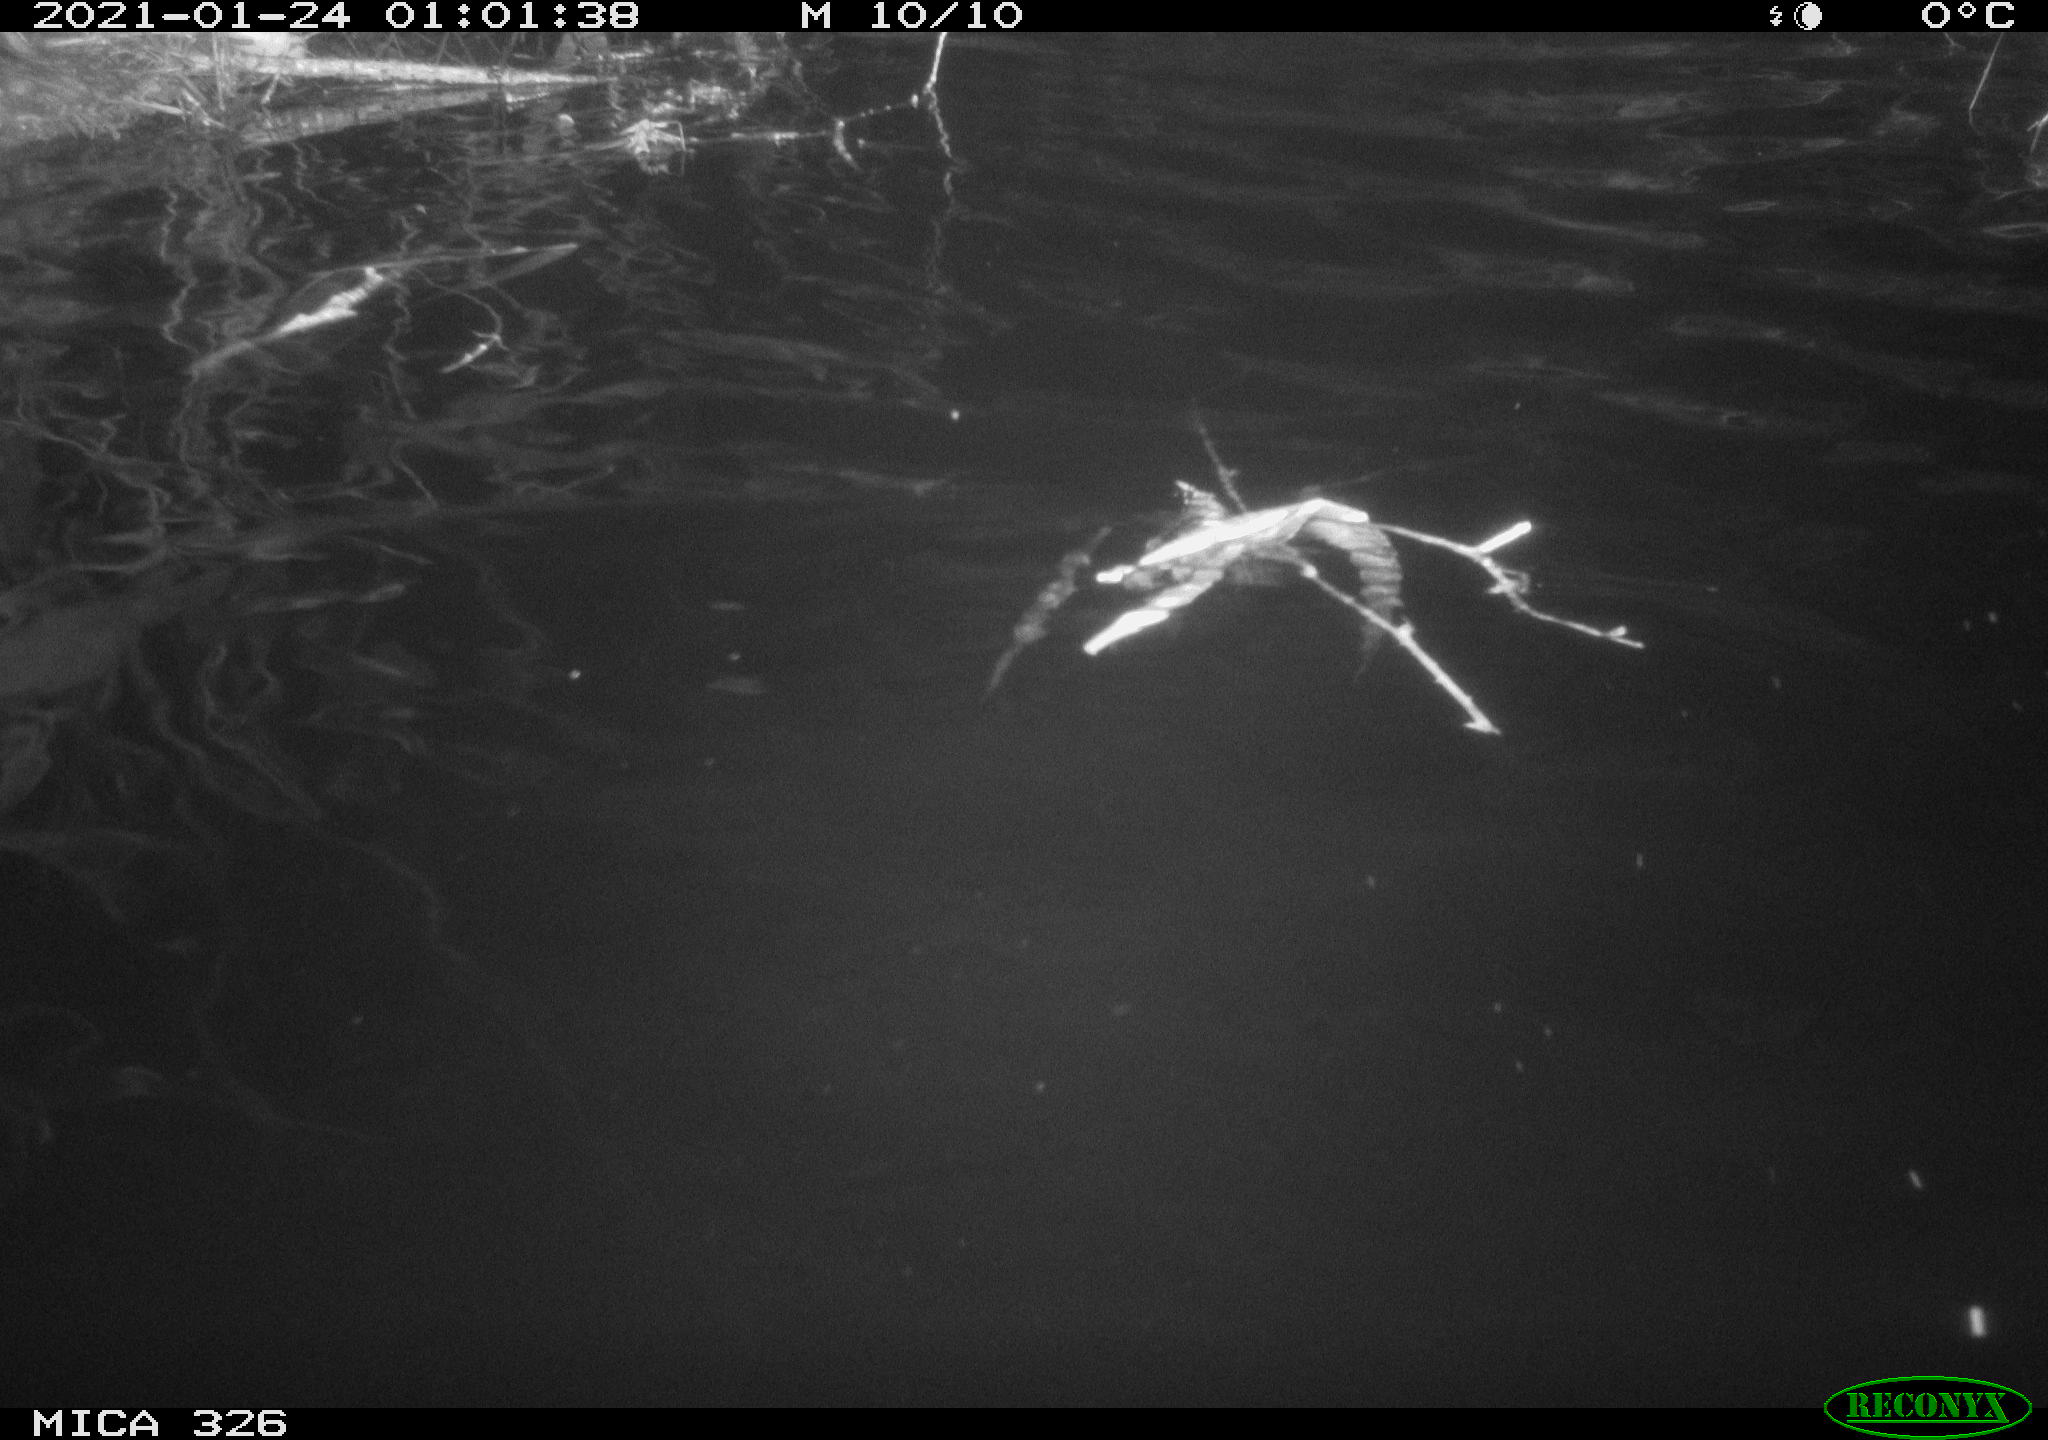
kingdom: Animalia
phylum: Chordata
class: Mammalia
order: Rodentia
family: Cricetidae
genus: Ondatra
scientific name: Ondatra zibethicus
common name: Muskrat
